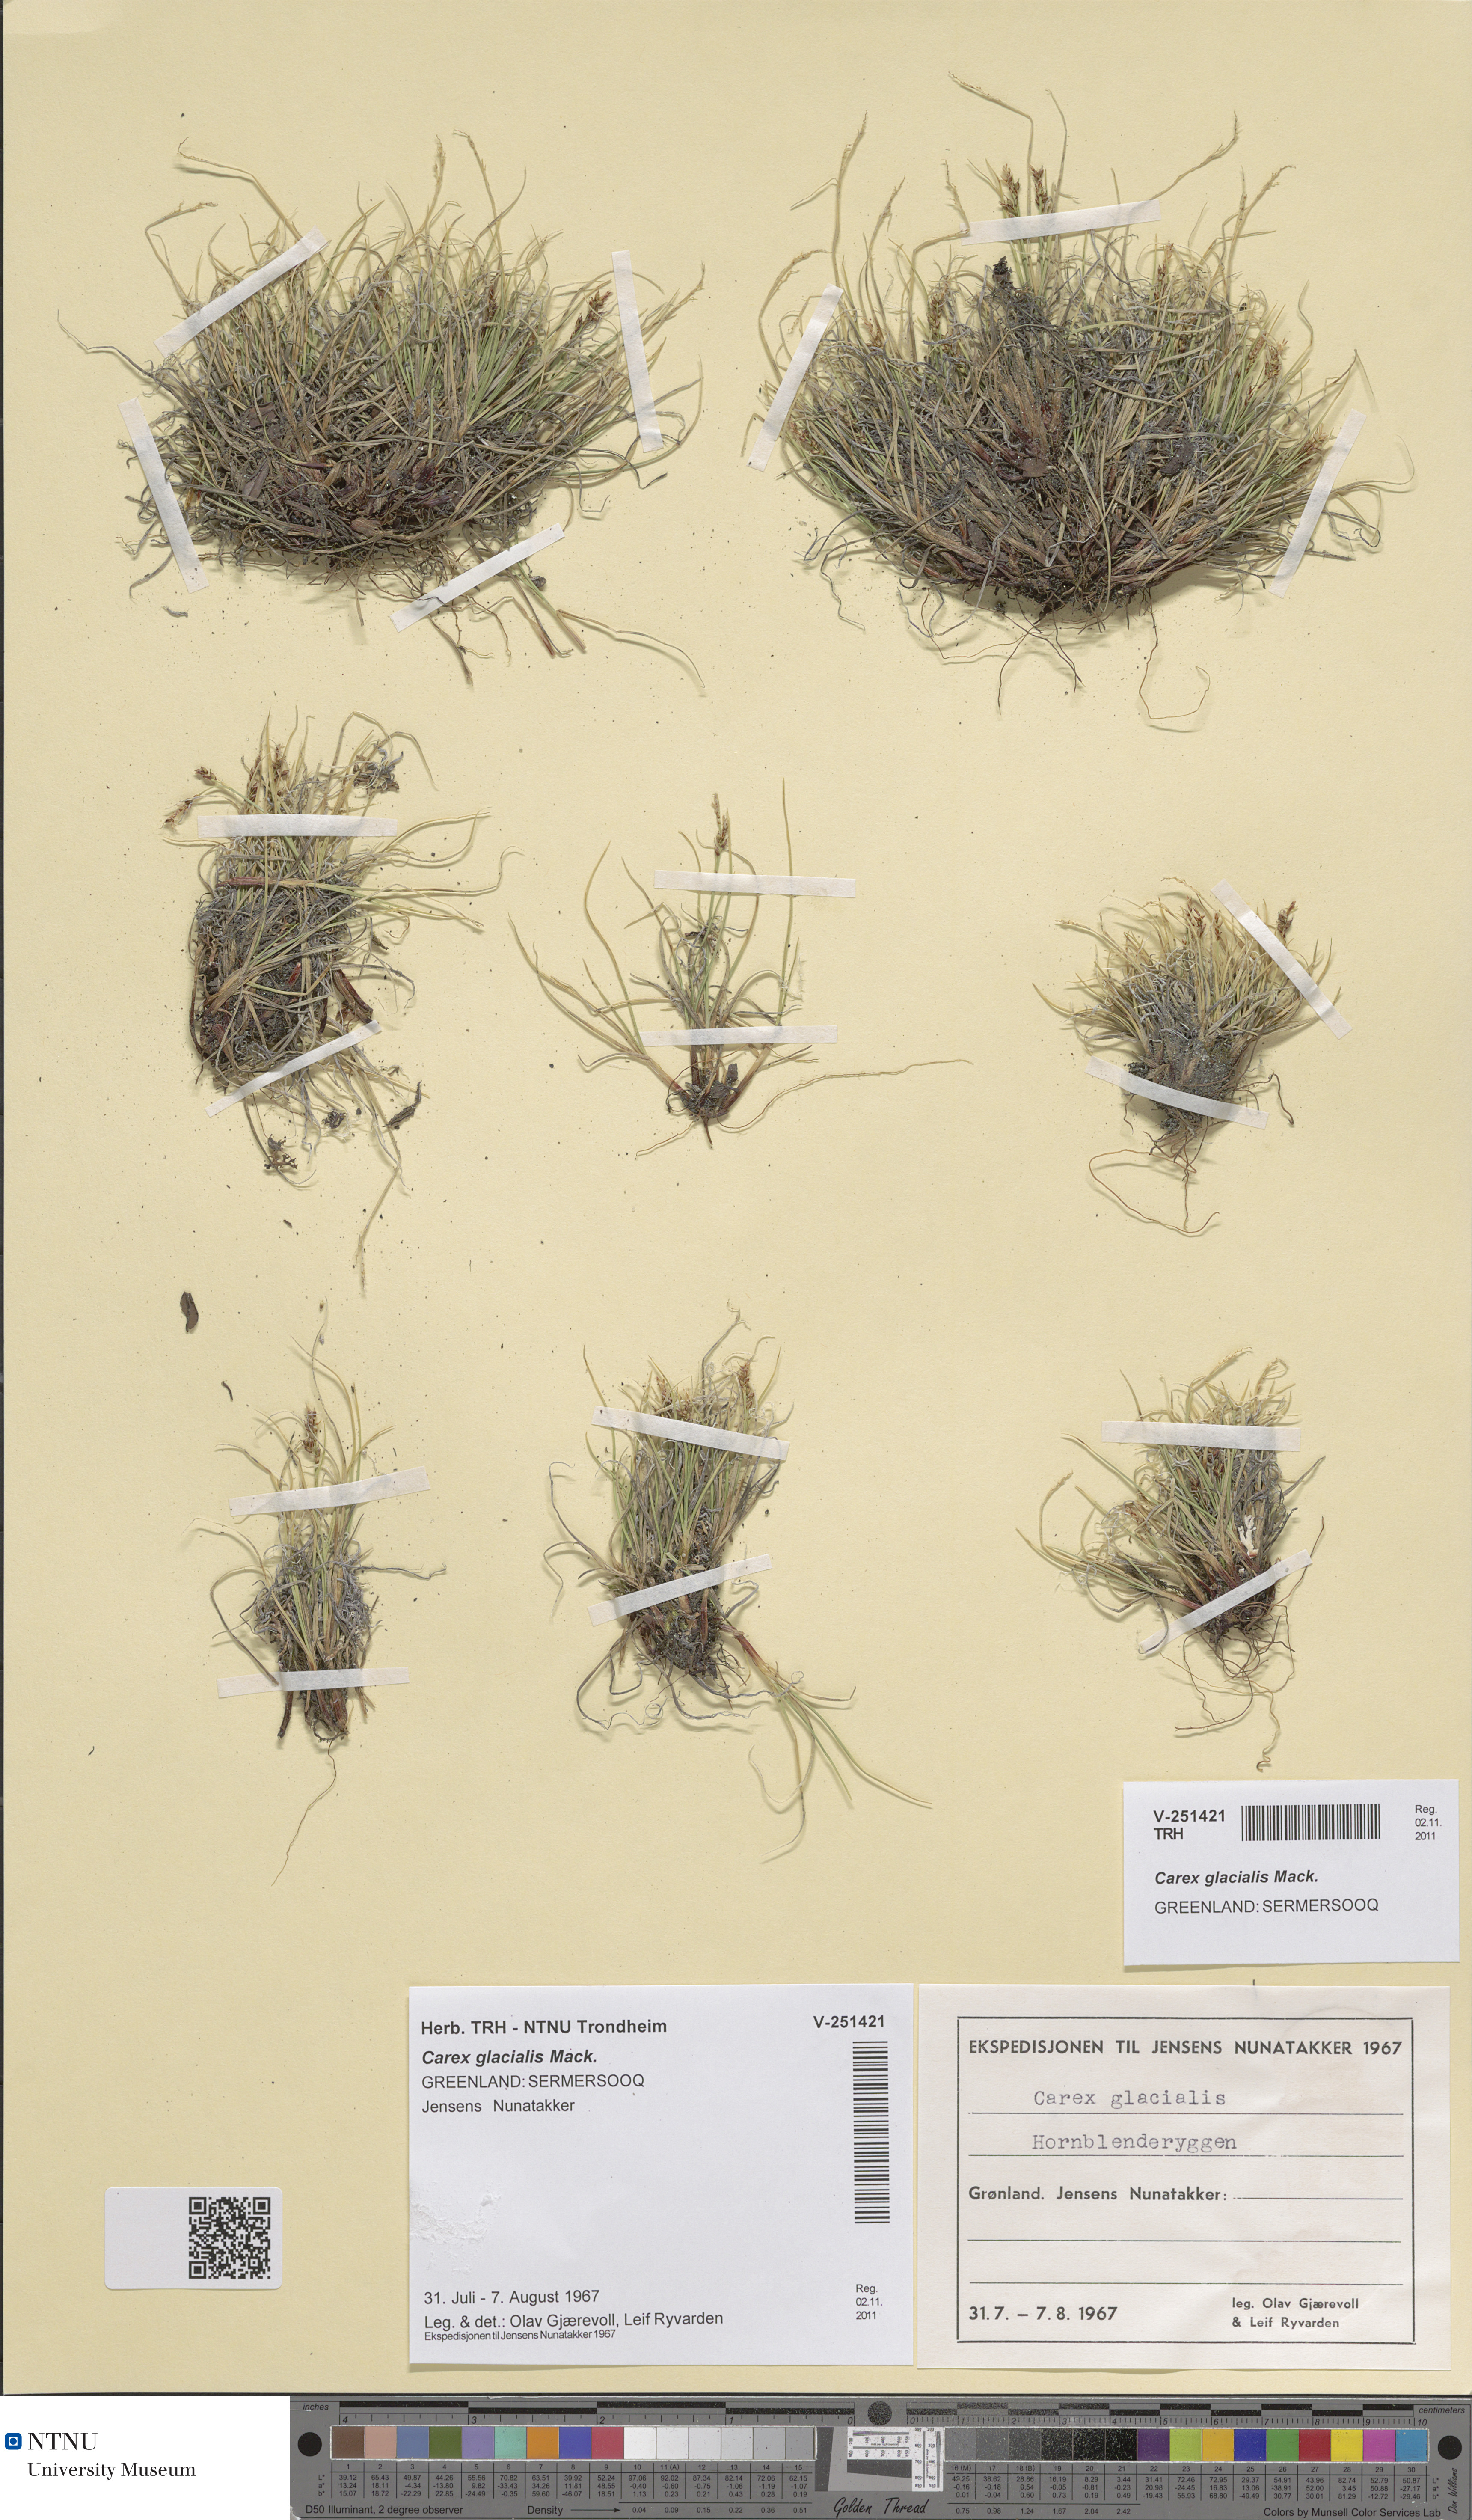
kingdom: Plantae
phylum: Tracheophyta
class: Liliopsida
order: Poales
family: Cyperaceae
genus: Carex
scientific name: Carex glacialis
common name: Newfoundland sedge
